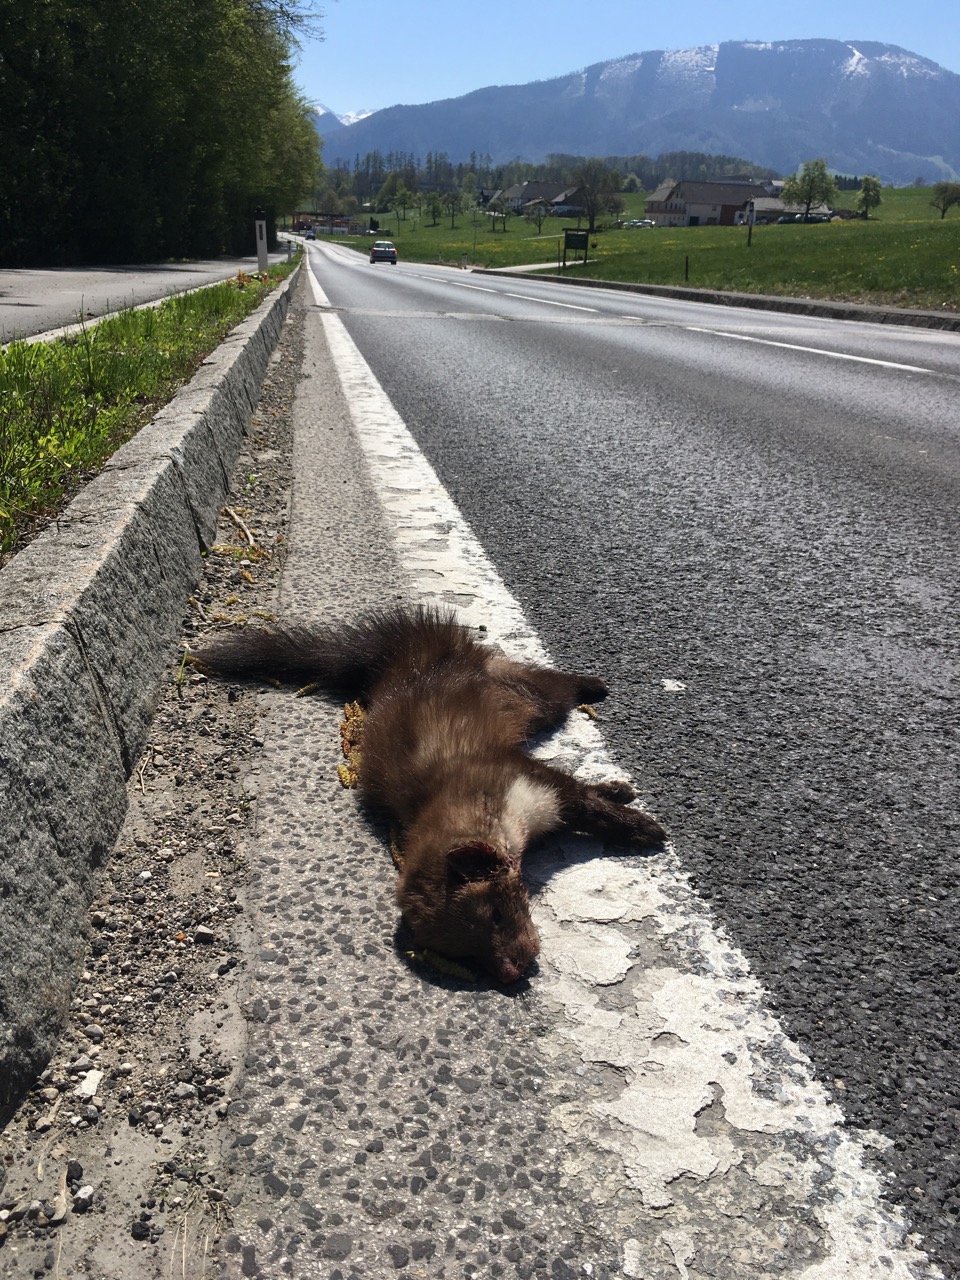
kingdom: Animalia
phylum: Chordata
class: Mammalia
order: Carnivora
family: Mustelidae
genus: Martes
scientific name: Martes foina
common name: Beech marten
